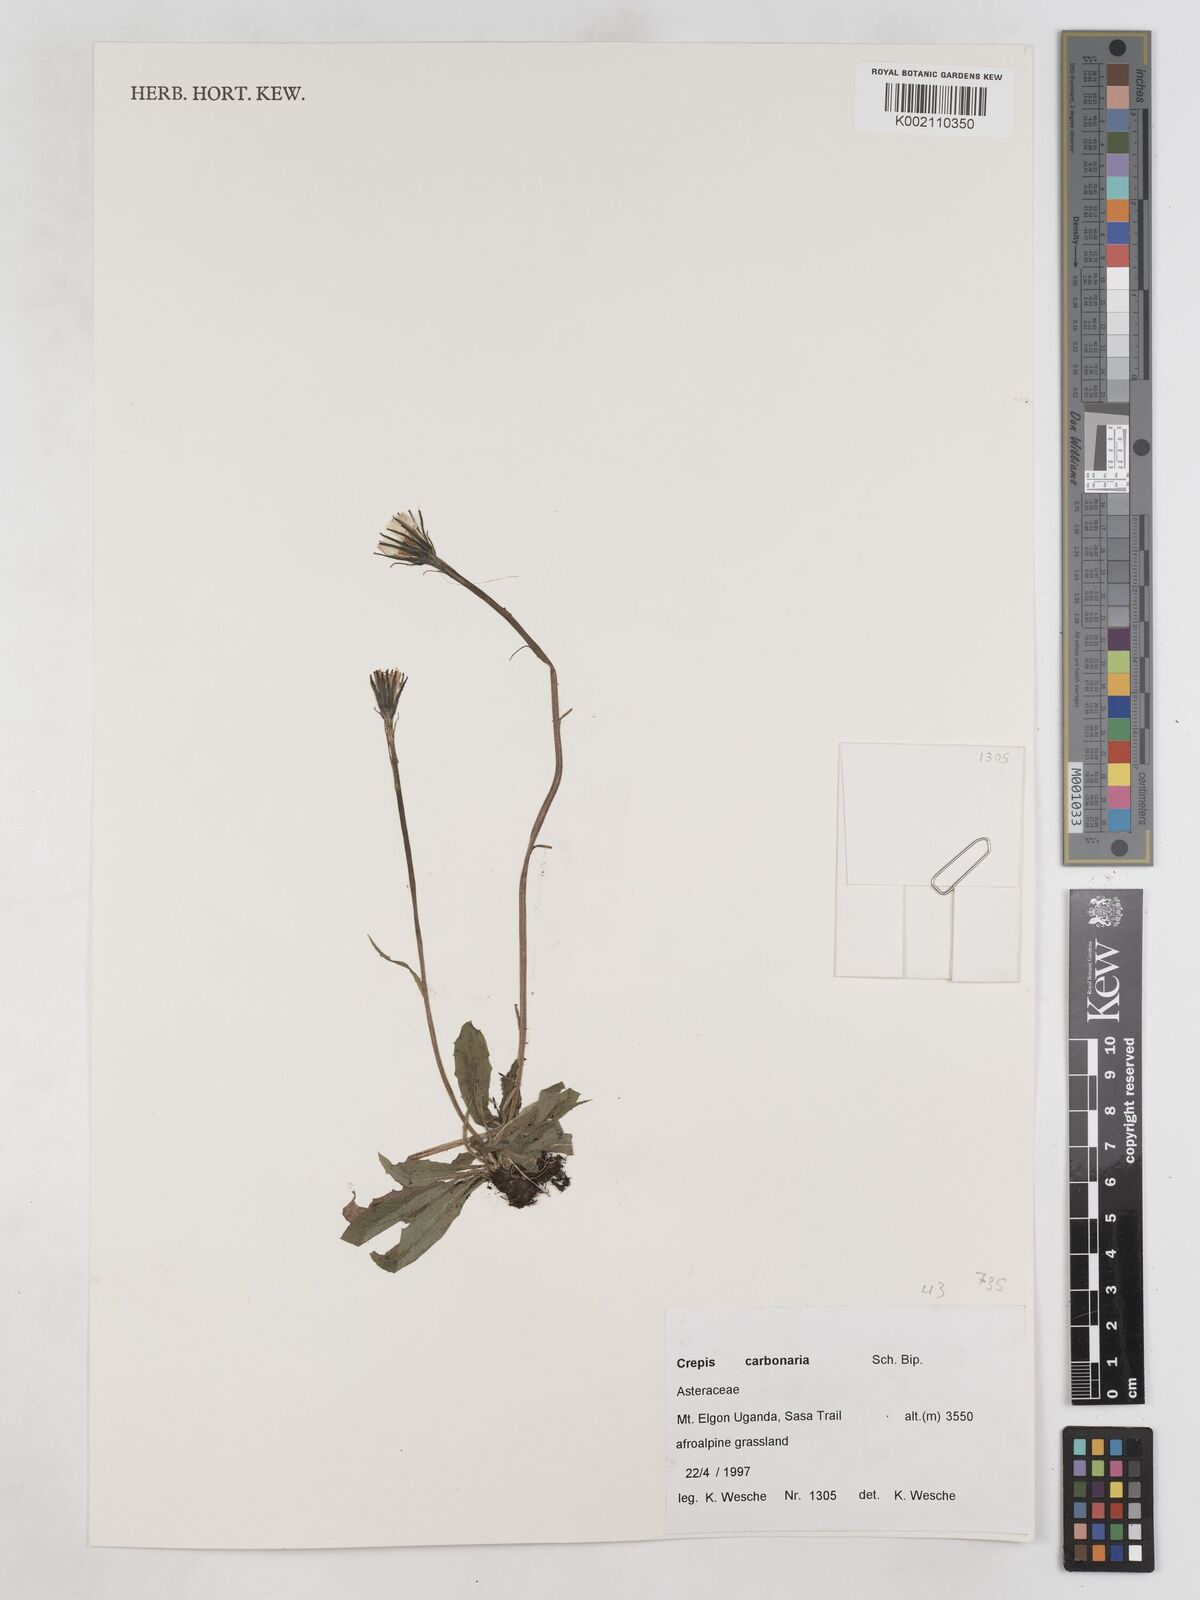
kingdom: Plantae
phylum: Tracheophyta
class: Magnoliopsida
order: Asterales
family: Asteraceae
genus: Crepis
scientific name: Crepis carbonaria
